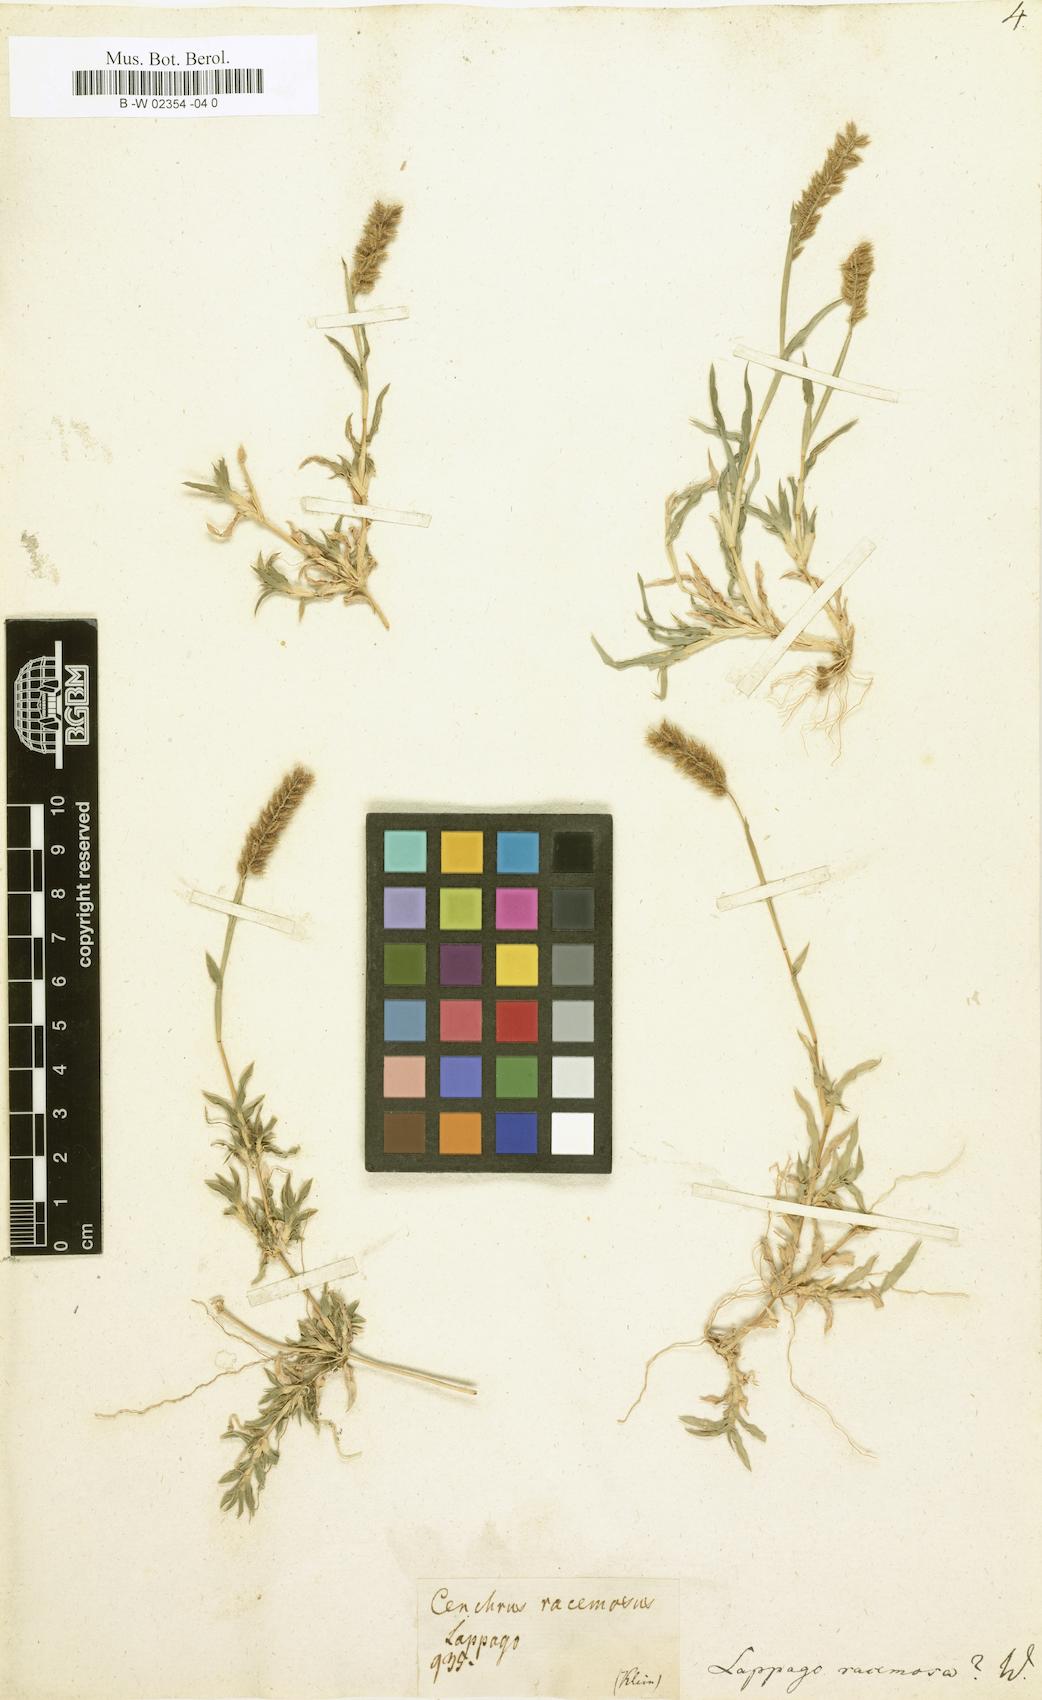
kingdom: Plantae
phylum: Tracheophyta
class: Liliopsida
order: Poales
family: Poaceae
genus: Tragus
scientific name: Tragus racemosus
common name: European bur-grass
